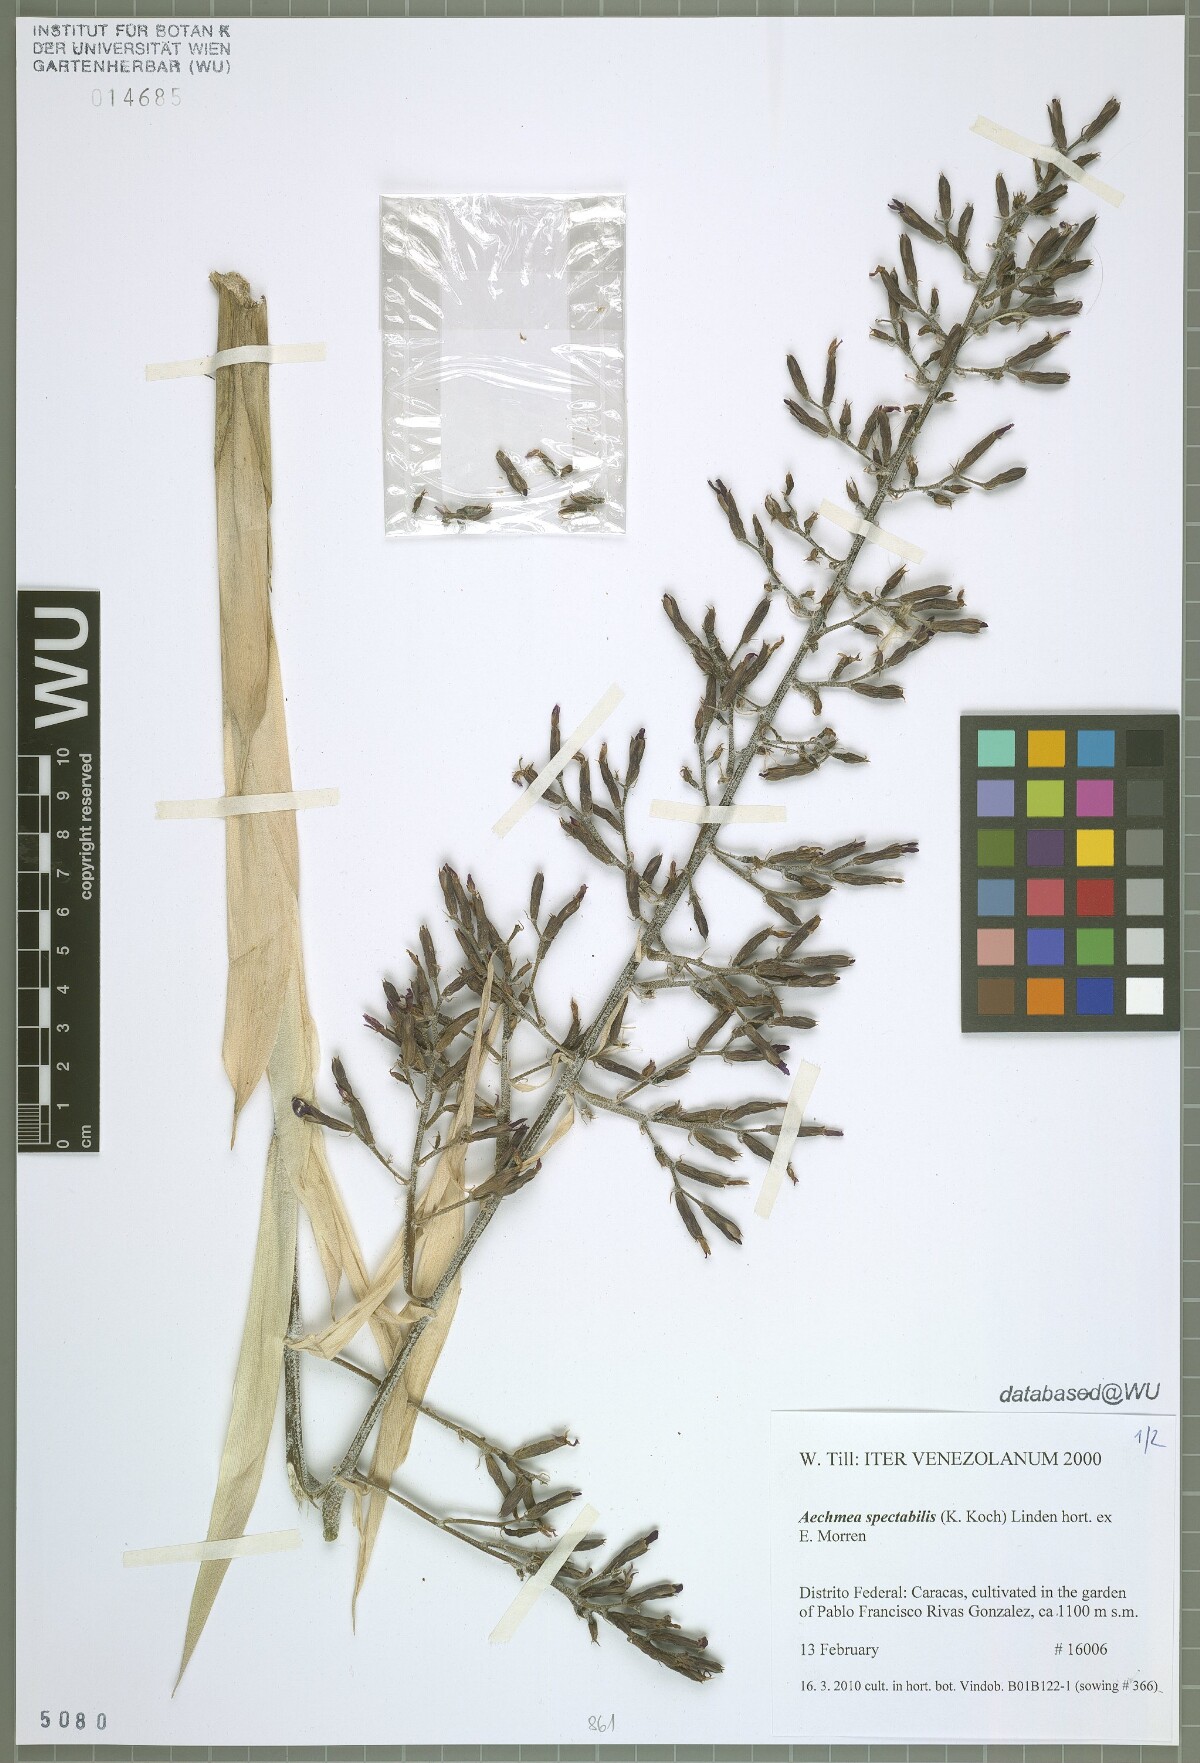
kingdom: Plantae
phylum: Tracheophyta
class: Liliopsida
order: Poales
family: Bromeliaceae
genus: Aechmea
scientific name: Aechmea spectabilis
